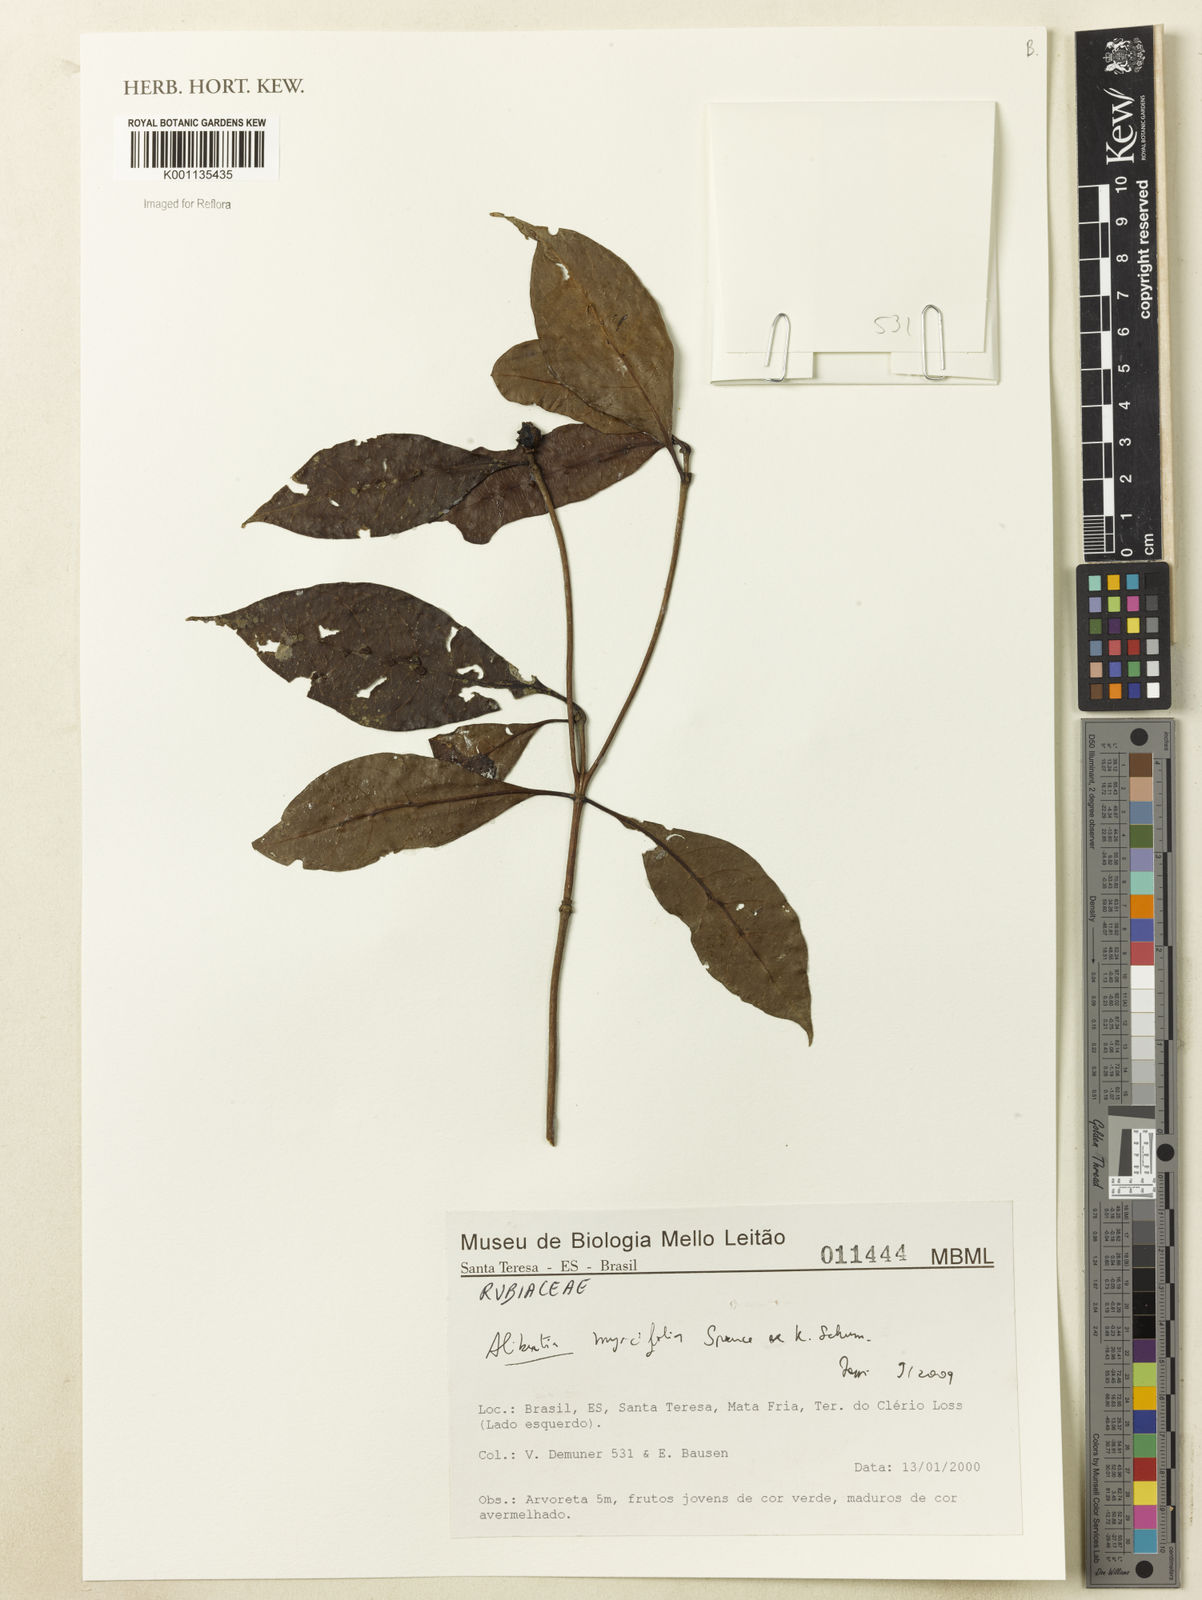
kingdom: Plantae
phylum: Tracheophyta
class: Magnoliopsida
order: Gentianales
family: Rubiaceae
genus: Cordiera
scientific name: Cordiera myrciifolia
